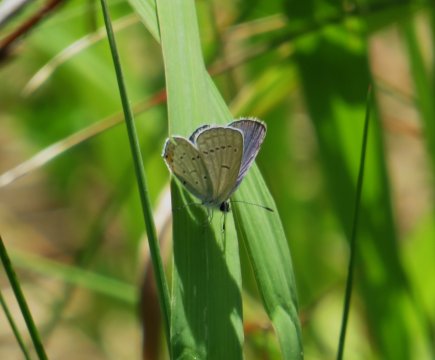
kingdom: Animalia
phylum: Arthropoda
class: Insecta
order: Lepidoptera
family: Lycaenidae
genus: Elkalyce
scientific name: Elkalyce comyntas
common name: Eastern Tailed-Blue
